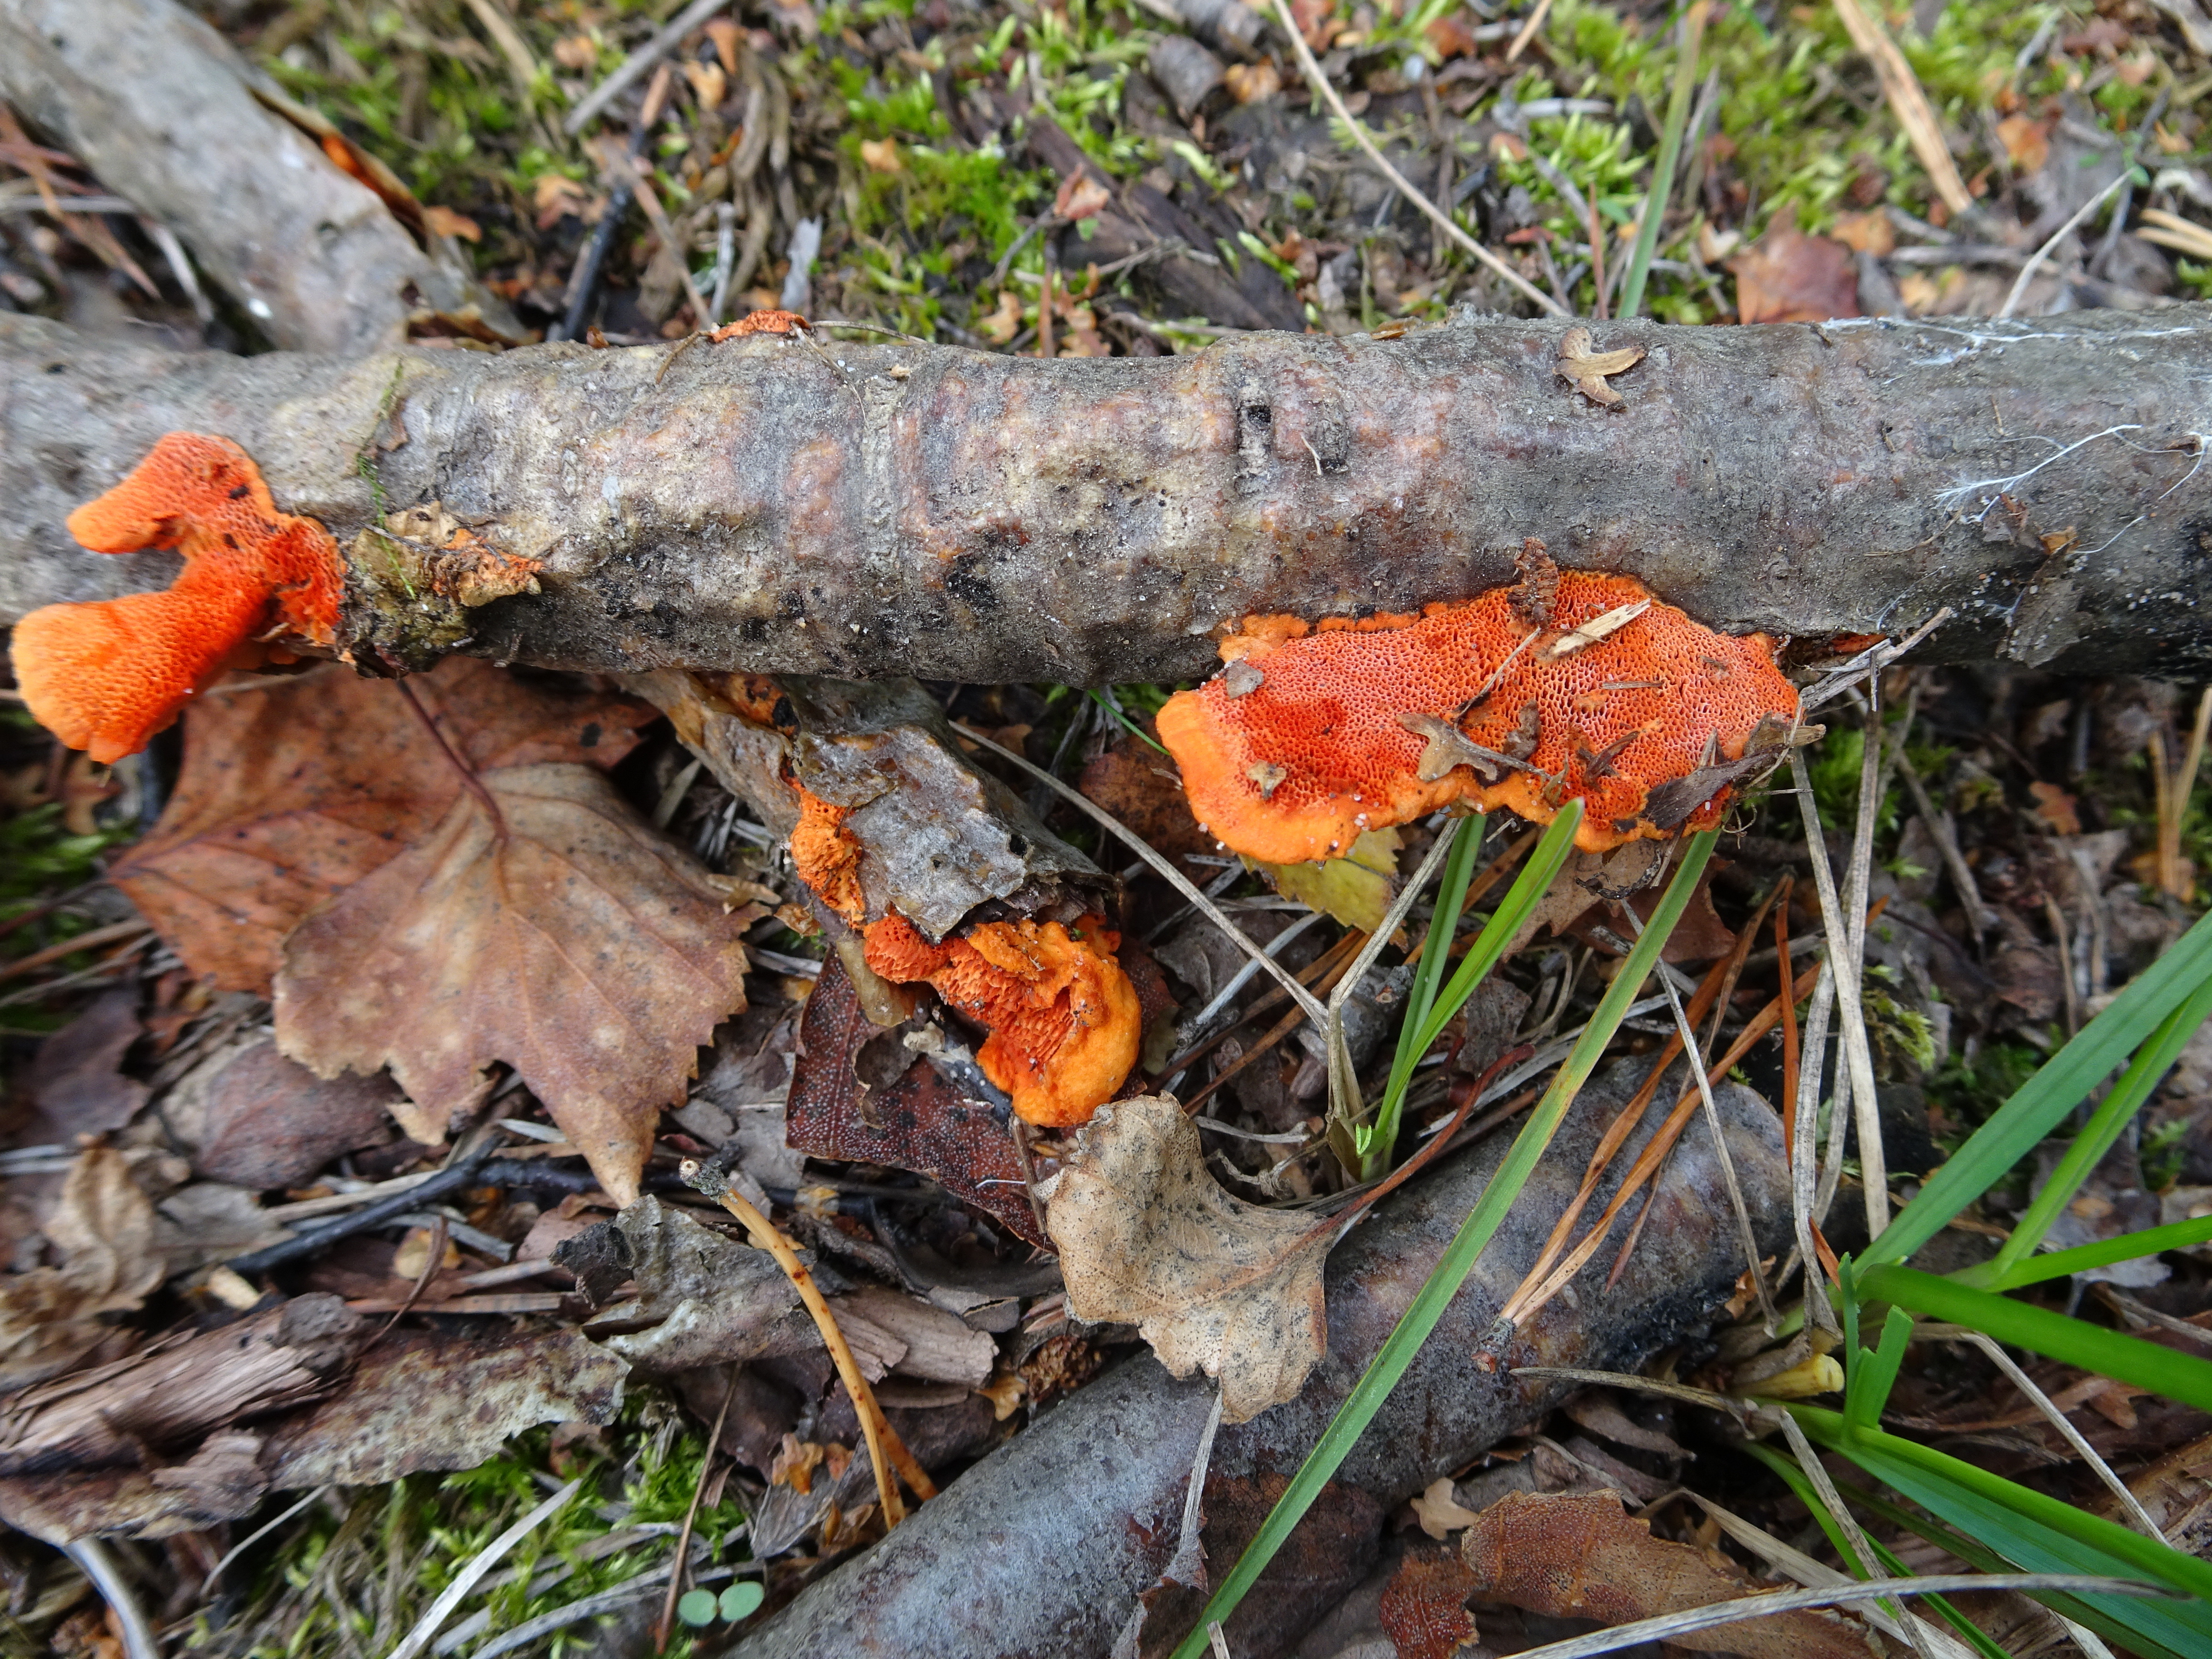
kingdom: Fungi
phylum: Basidiomycota
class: Agaricomycetes
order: Polyporales
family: Polyporaceae
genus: Trametes
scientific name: Trametes cinnabarina
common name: Northern cinnabar polypore
